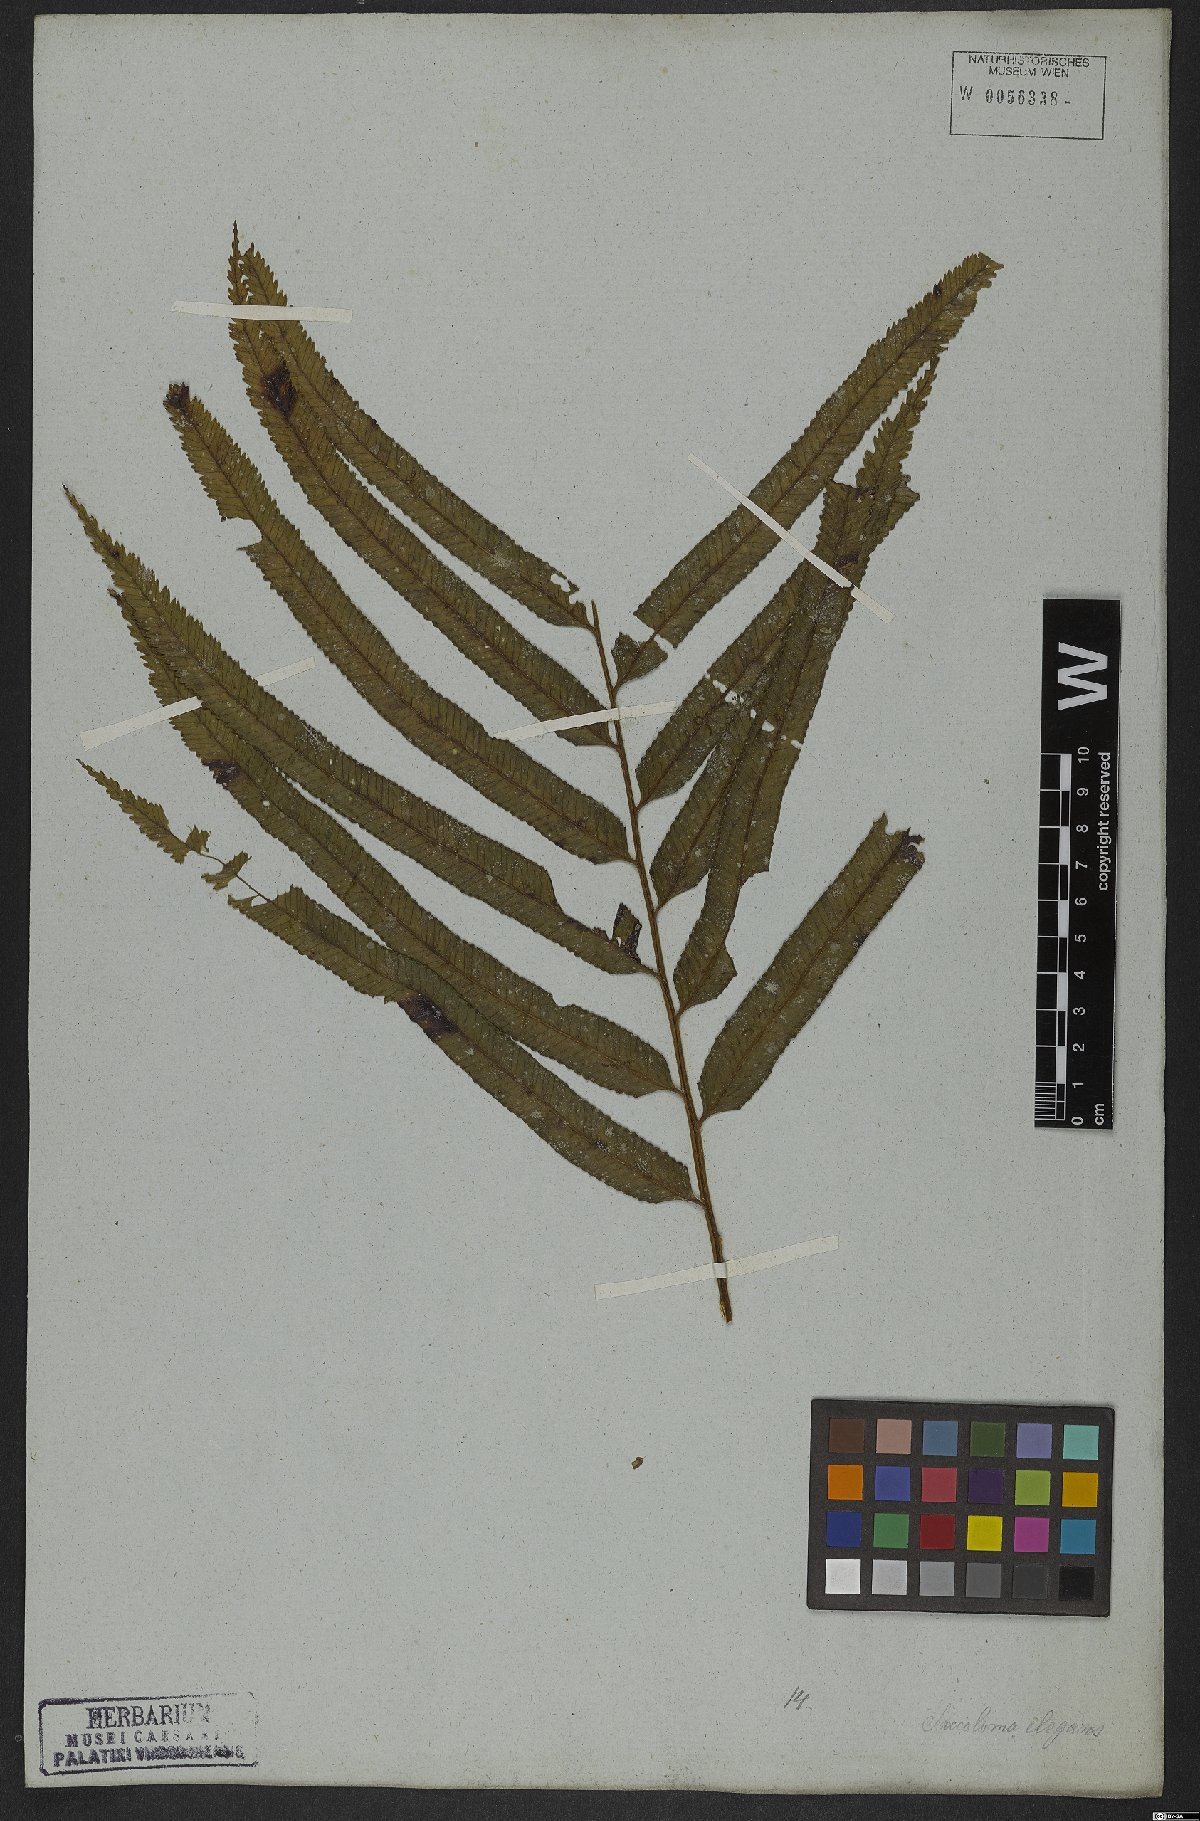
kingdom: Plantae
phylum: Tracheophyta
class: Polypodiopsida
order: Polypodiales
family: Saccolomataceae
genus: Saccoloma
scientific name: Saccoloma elegans
